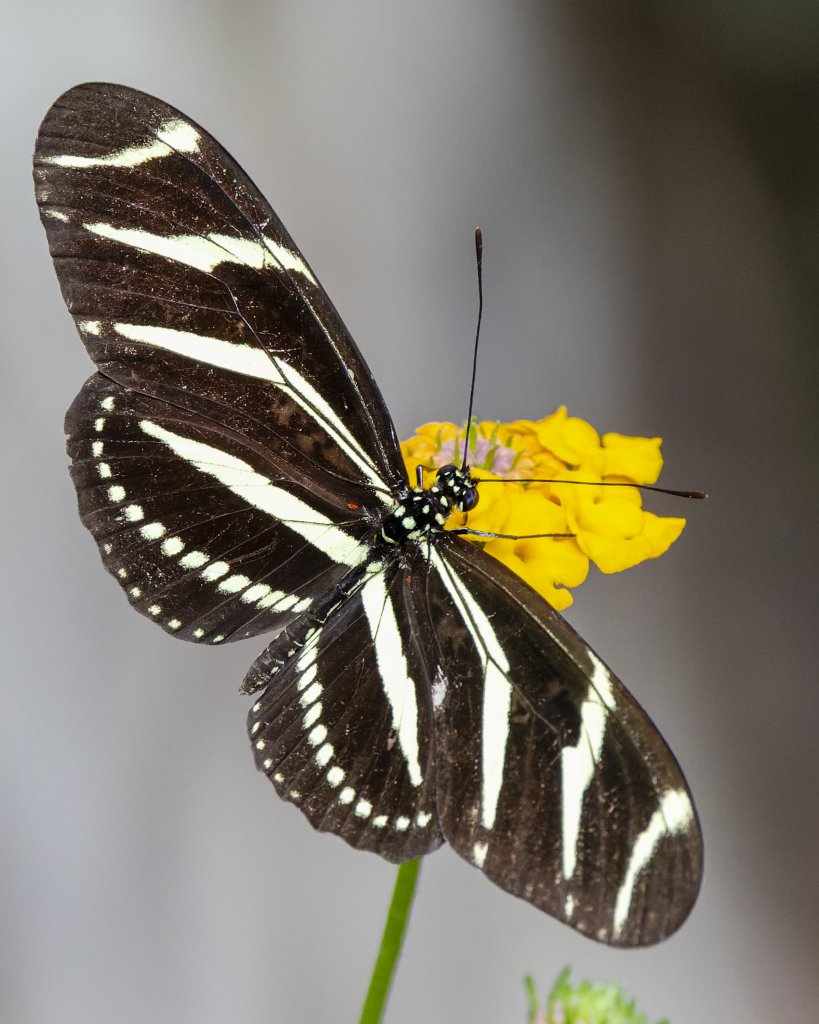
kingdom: Animalia
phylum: Arthropoda
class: Insecta
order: Lepidoptera
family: Nymphalidae
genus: Heliconius
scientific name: Heliconius charithonia
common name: Zebra Longwing
